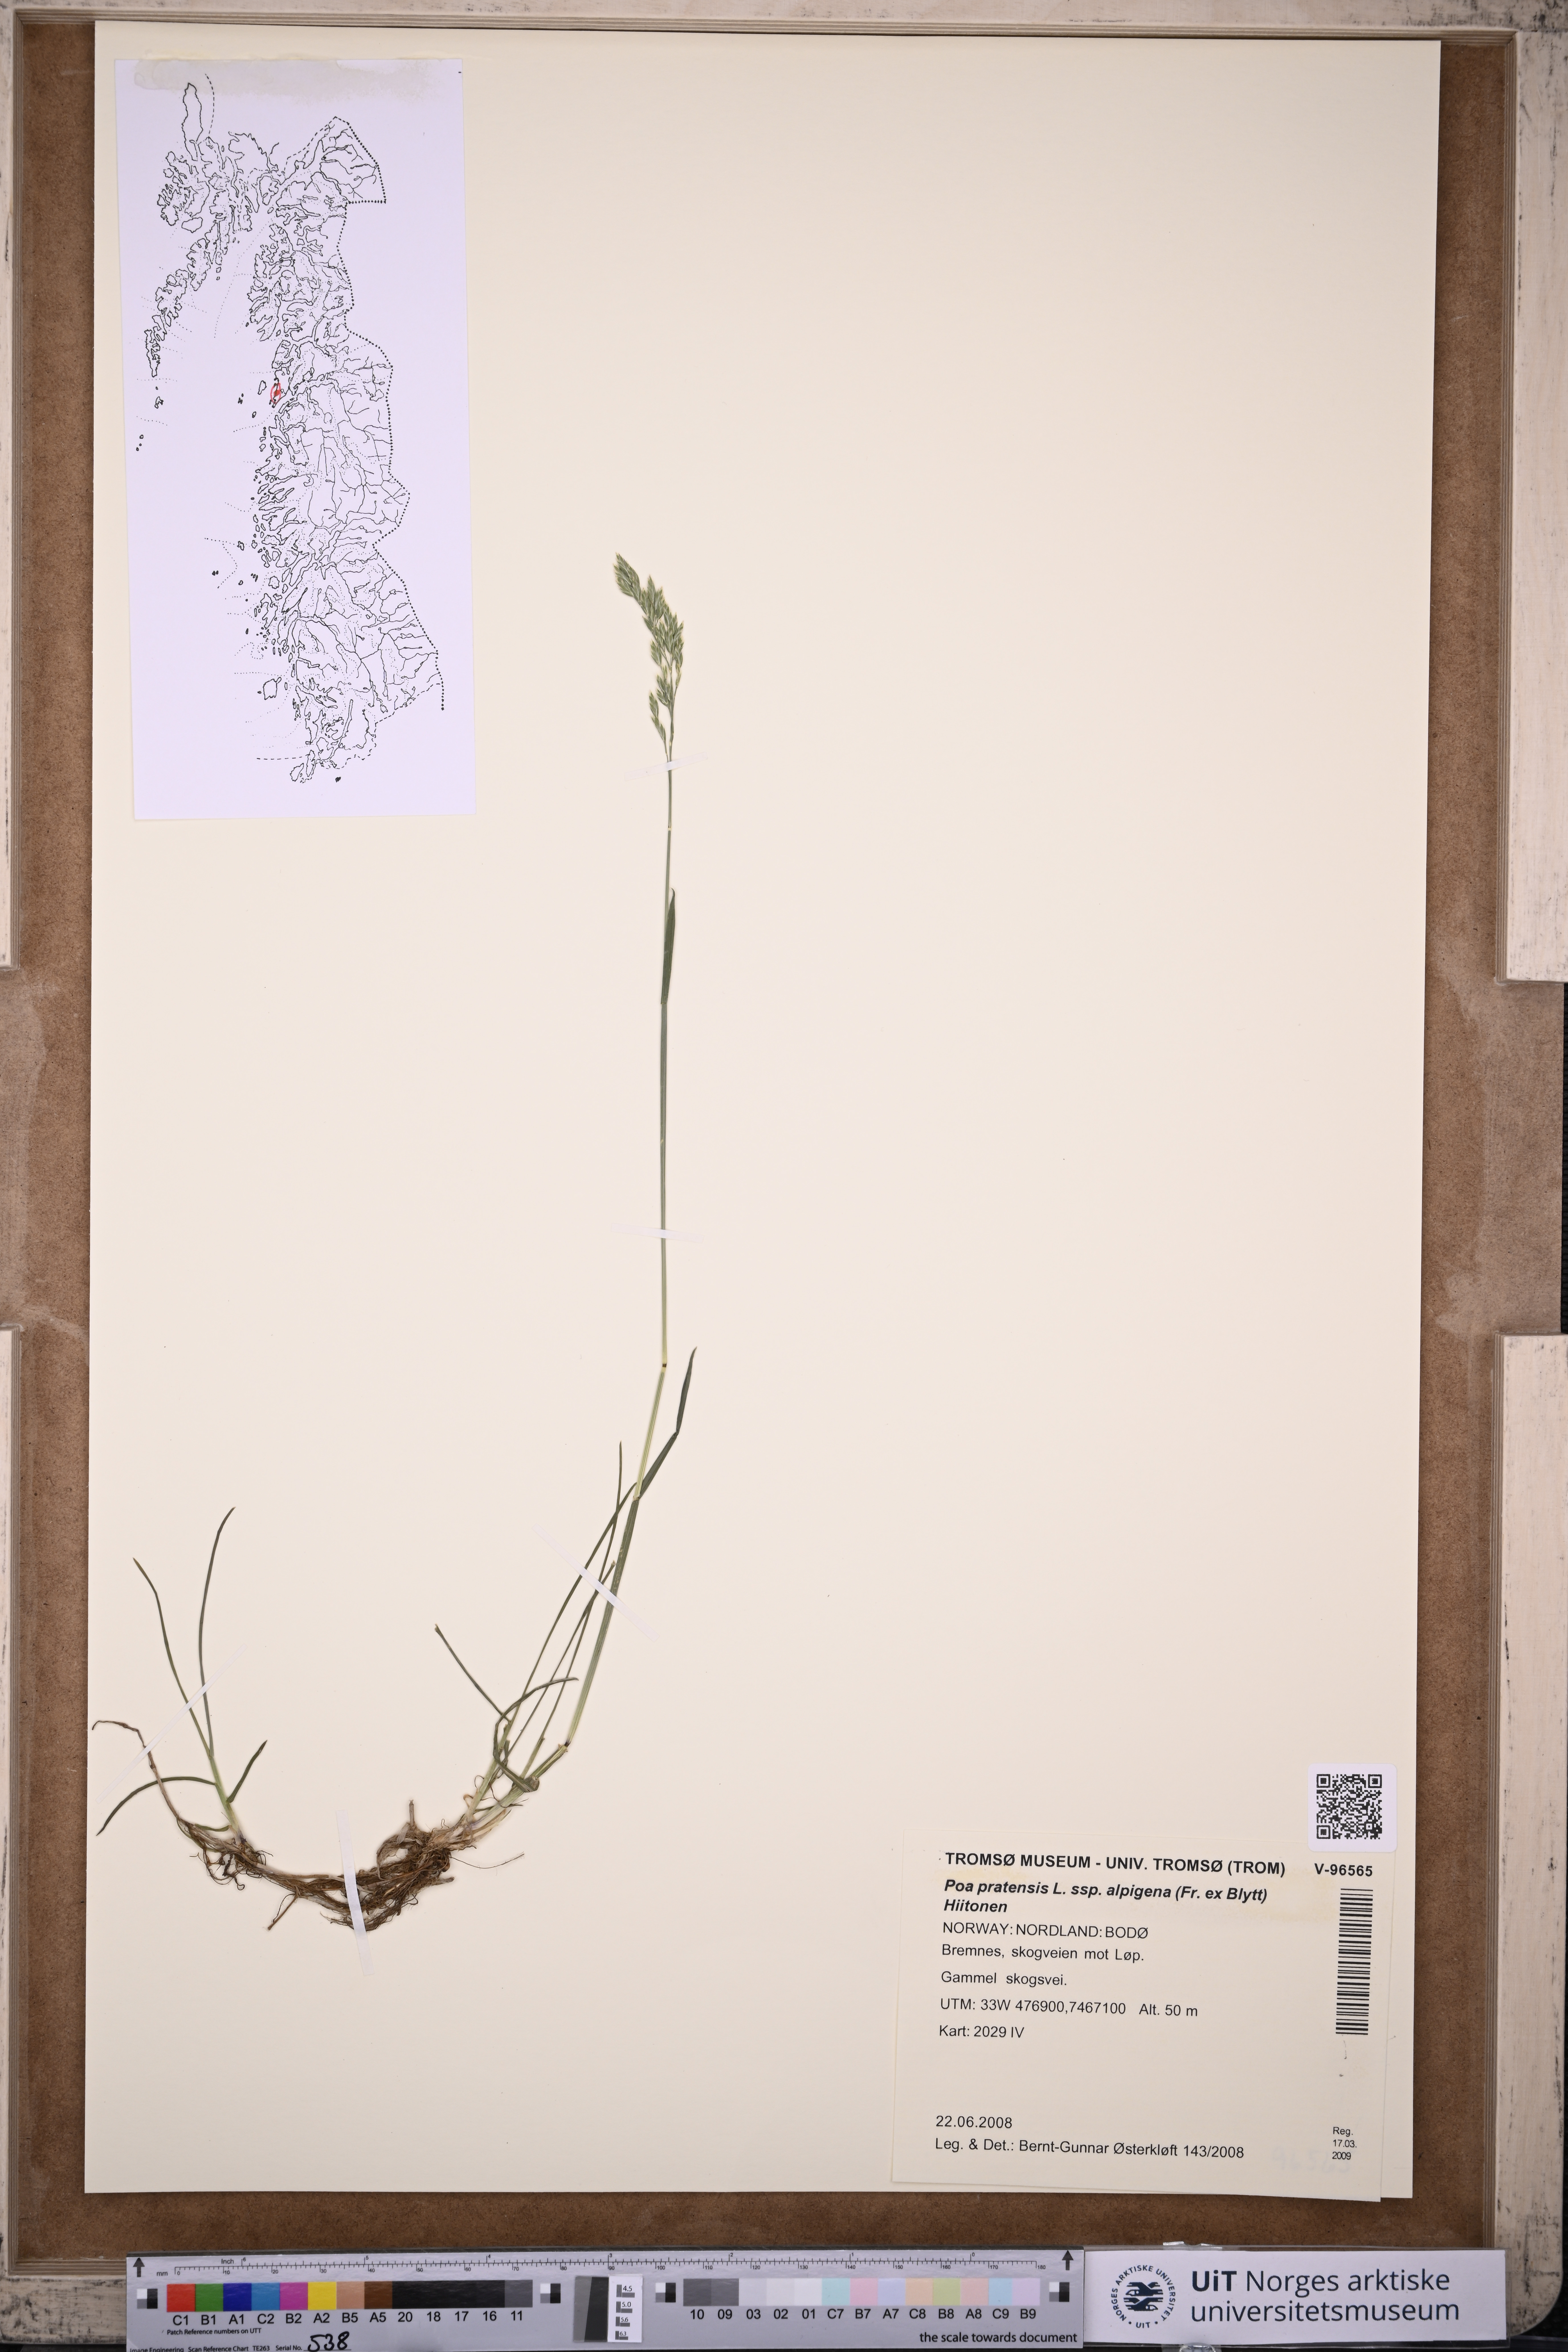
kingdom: Plantae
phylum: Tracheophyta
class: Liliopsida
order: Poales
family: Poaceae
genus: Poa
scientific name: Poa alpigena
